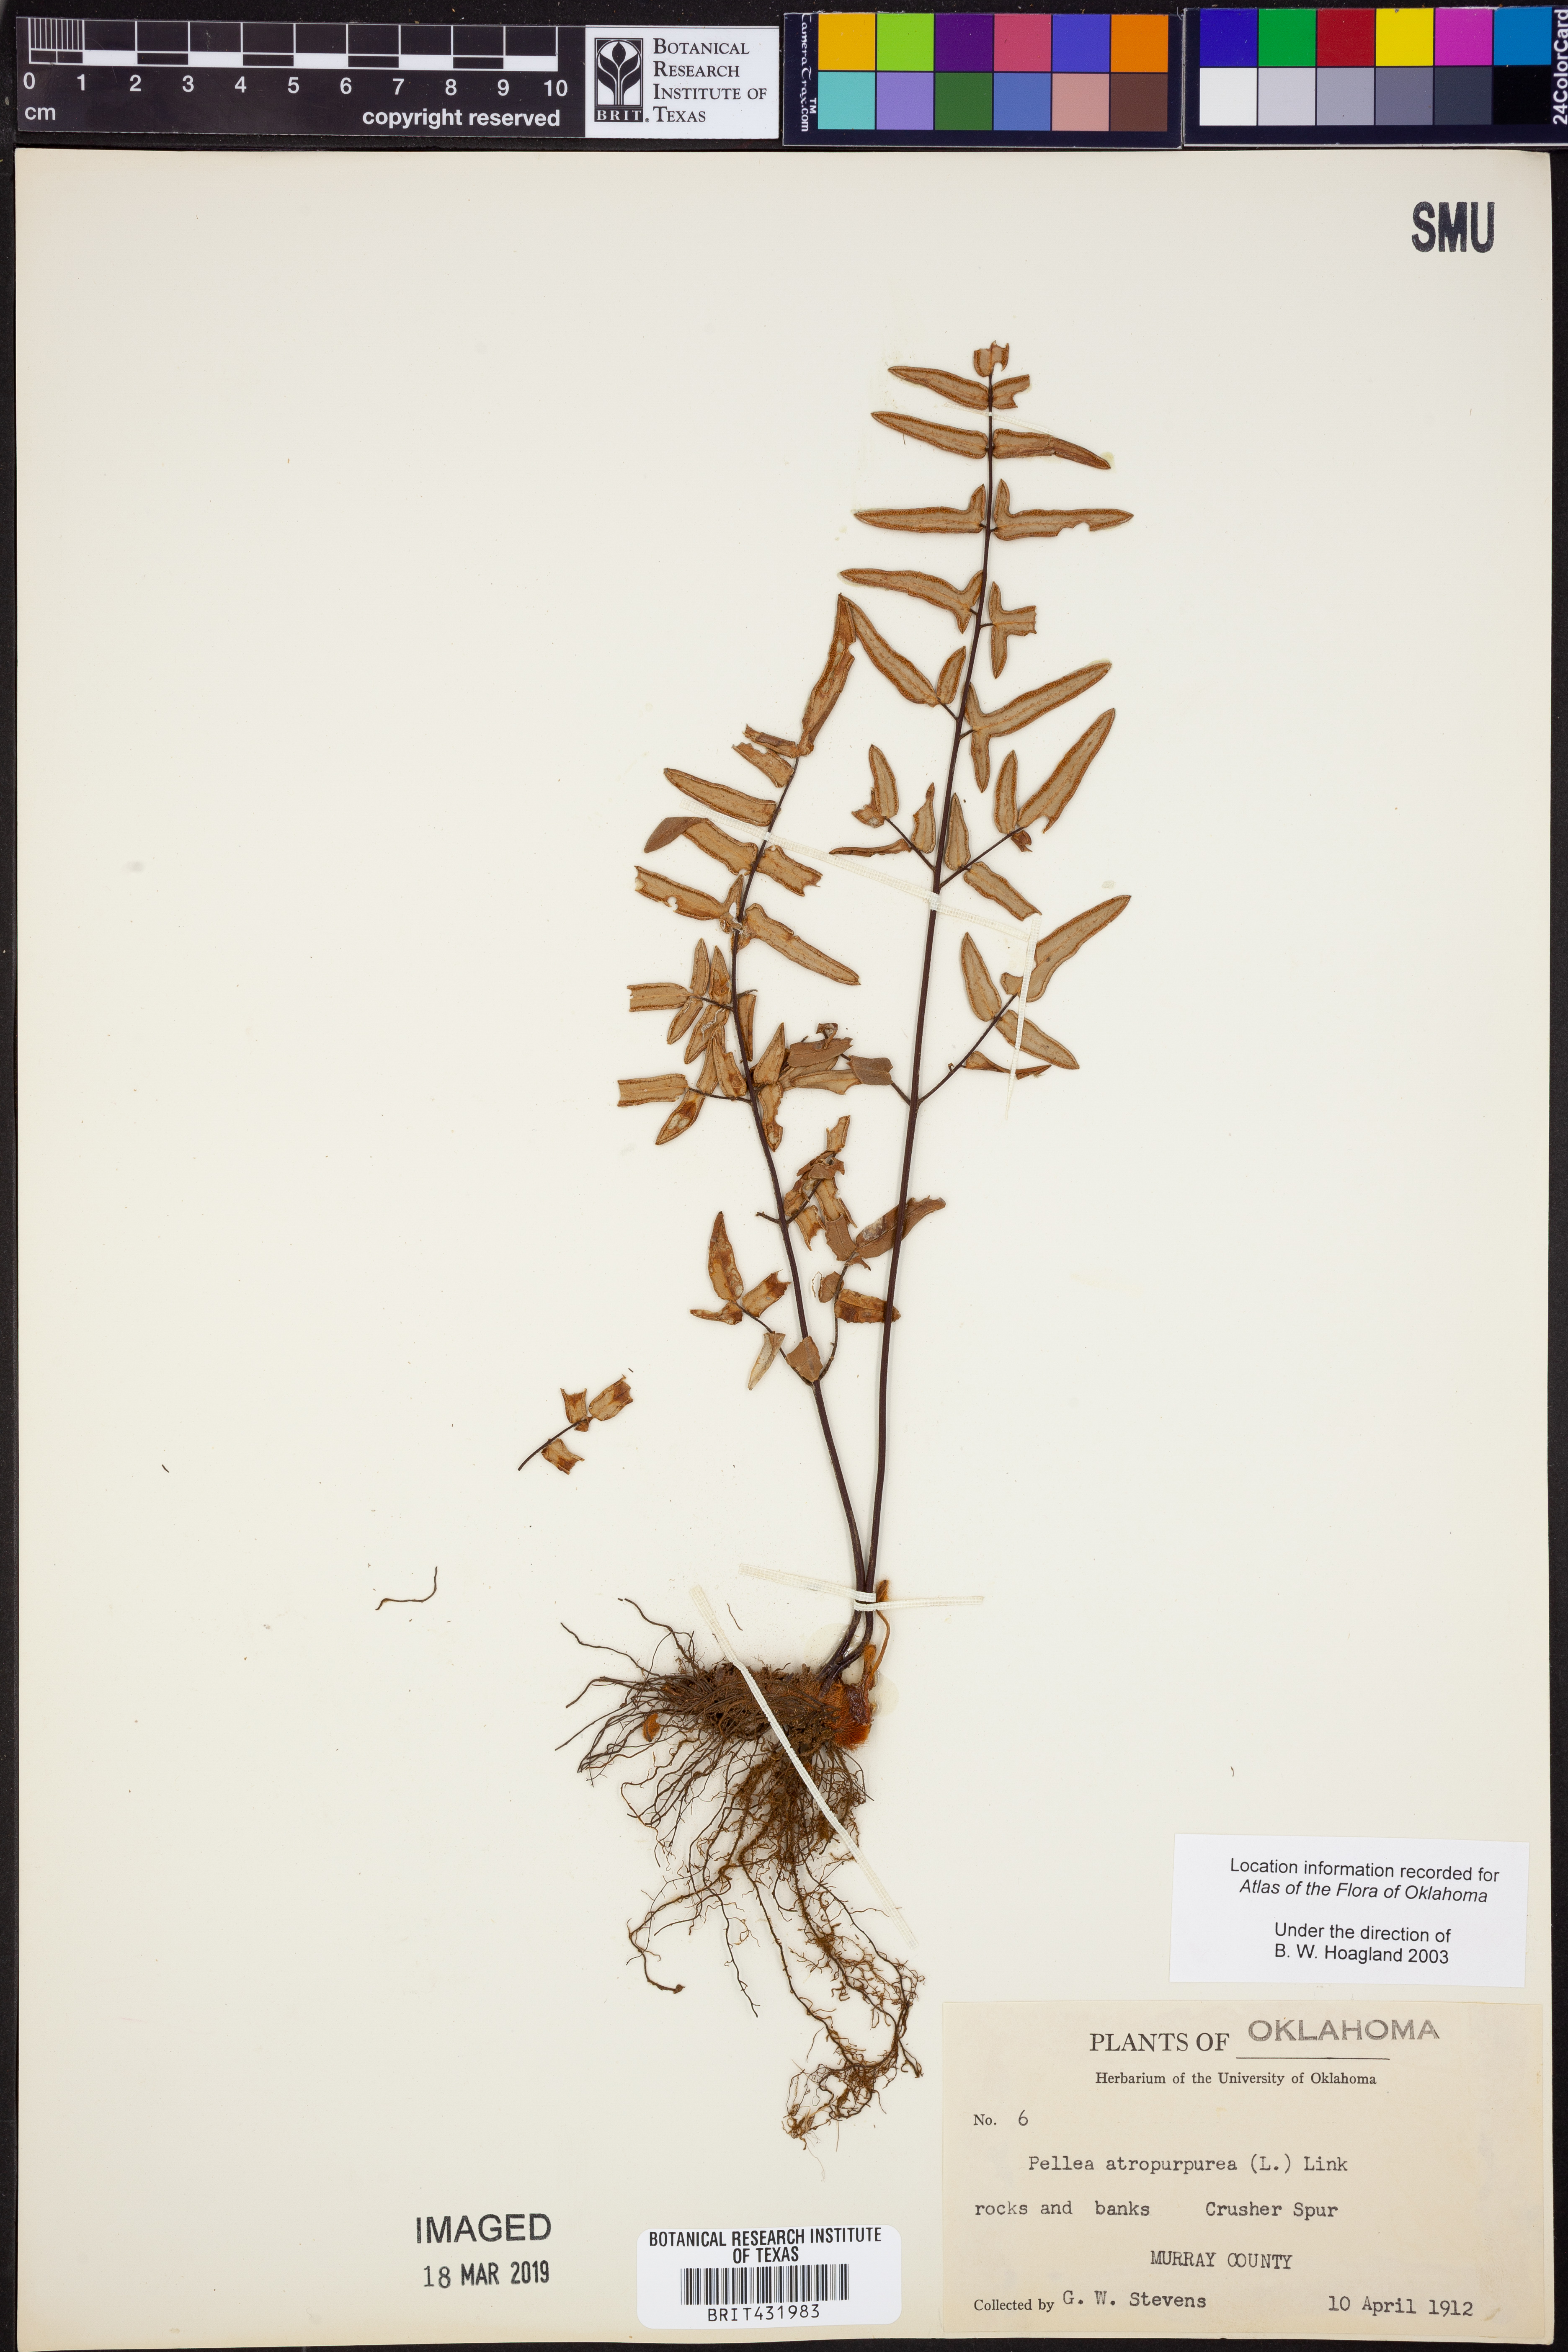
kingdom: Plantae
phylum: Tracheophyta
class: Polypodiopsida
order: Polypodiales
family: Pteridaceae
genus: Pellaea
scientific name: Pellaea atropurpurea
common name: Hairy cliffbrake
